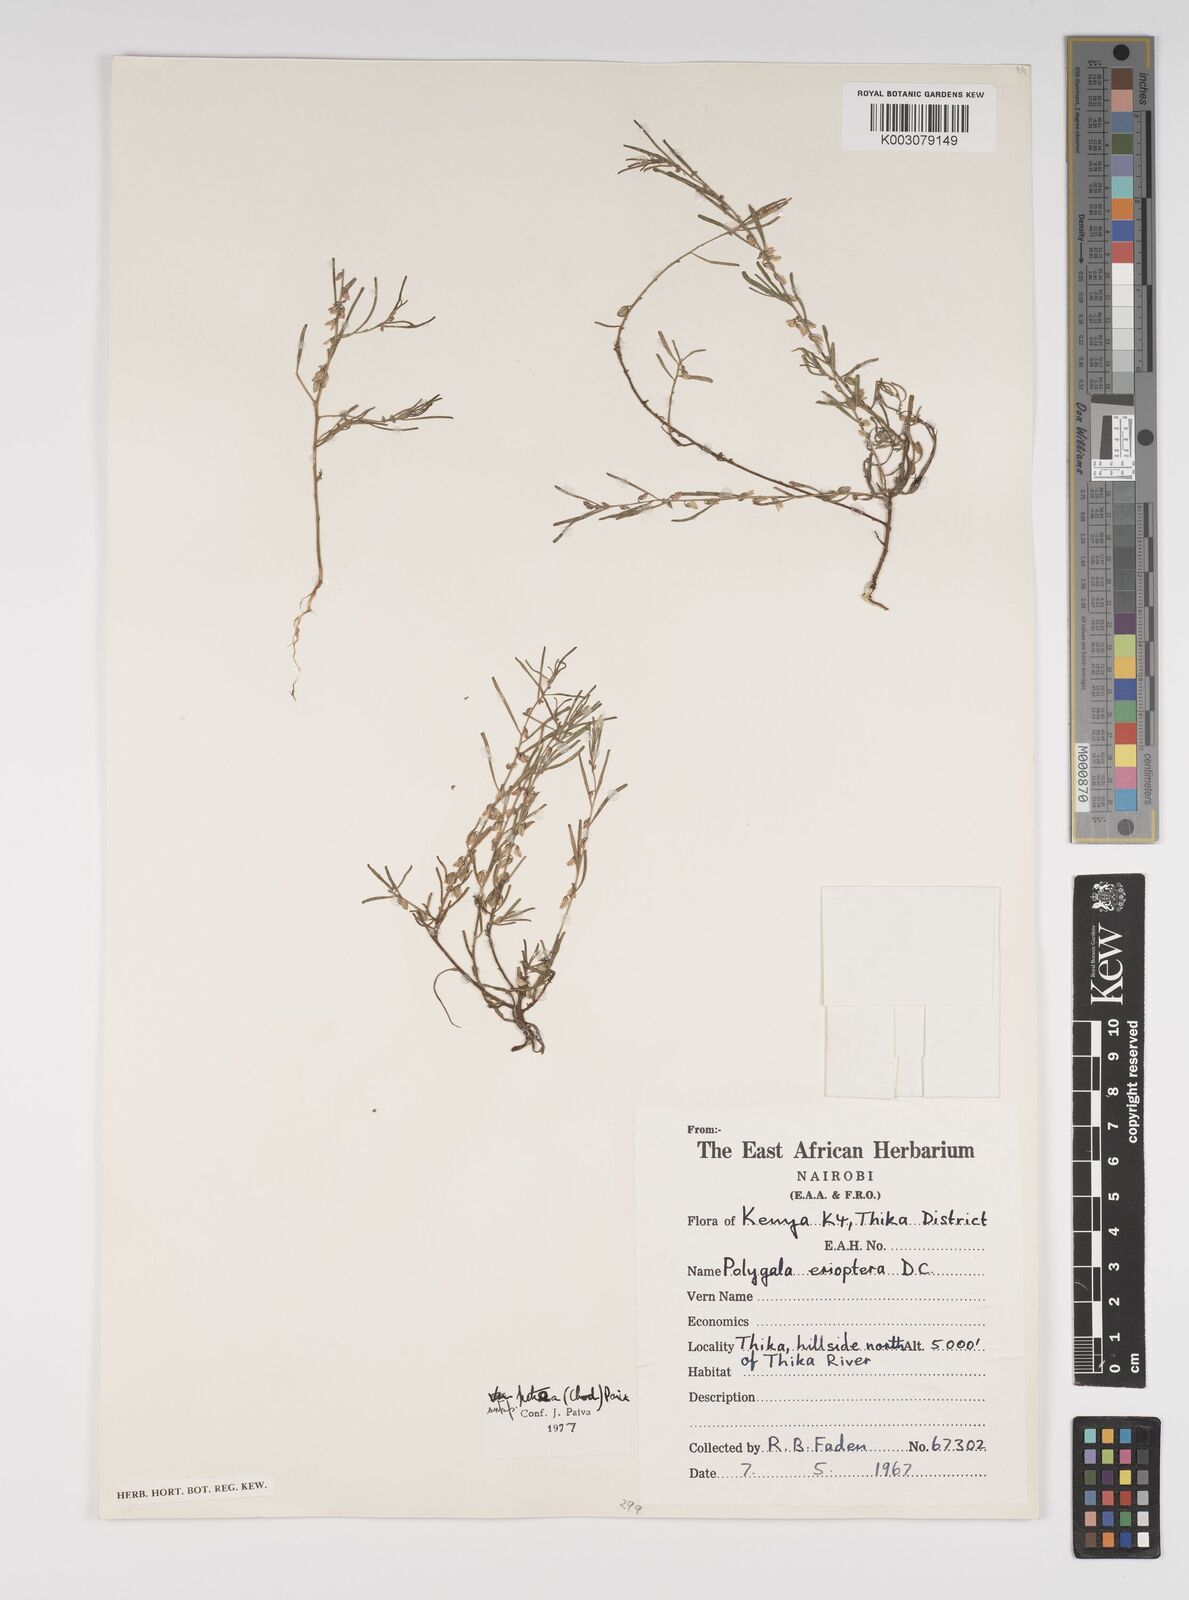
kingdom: Plantae
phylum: Tracheophyta
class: Magnoliopsida
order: Fabales
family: Polygalaceae
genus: Polygala
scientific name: Polygala erioptera
